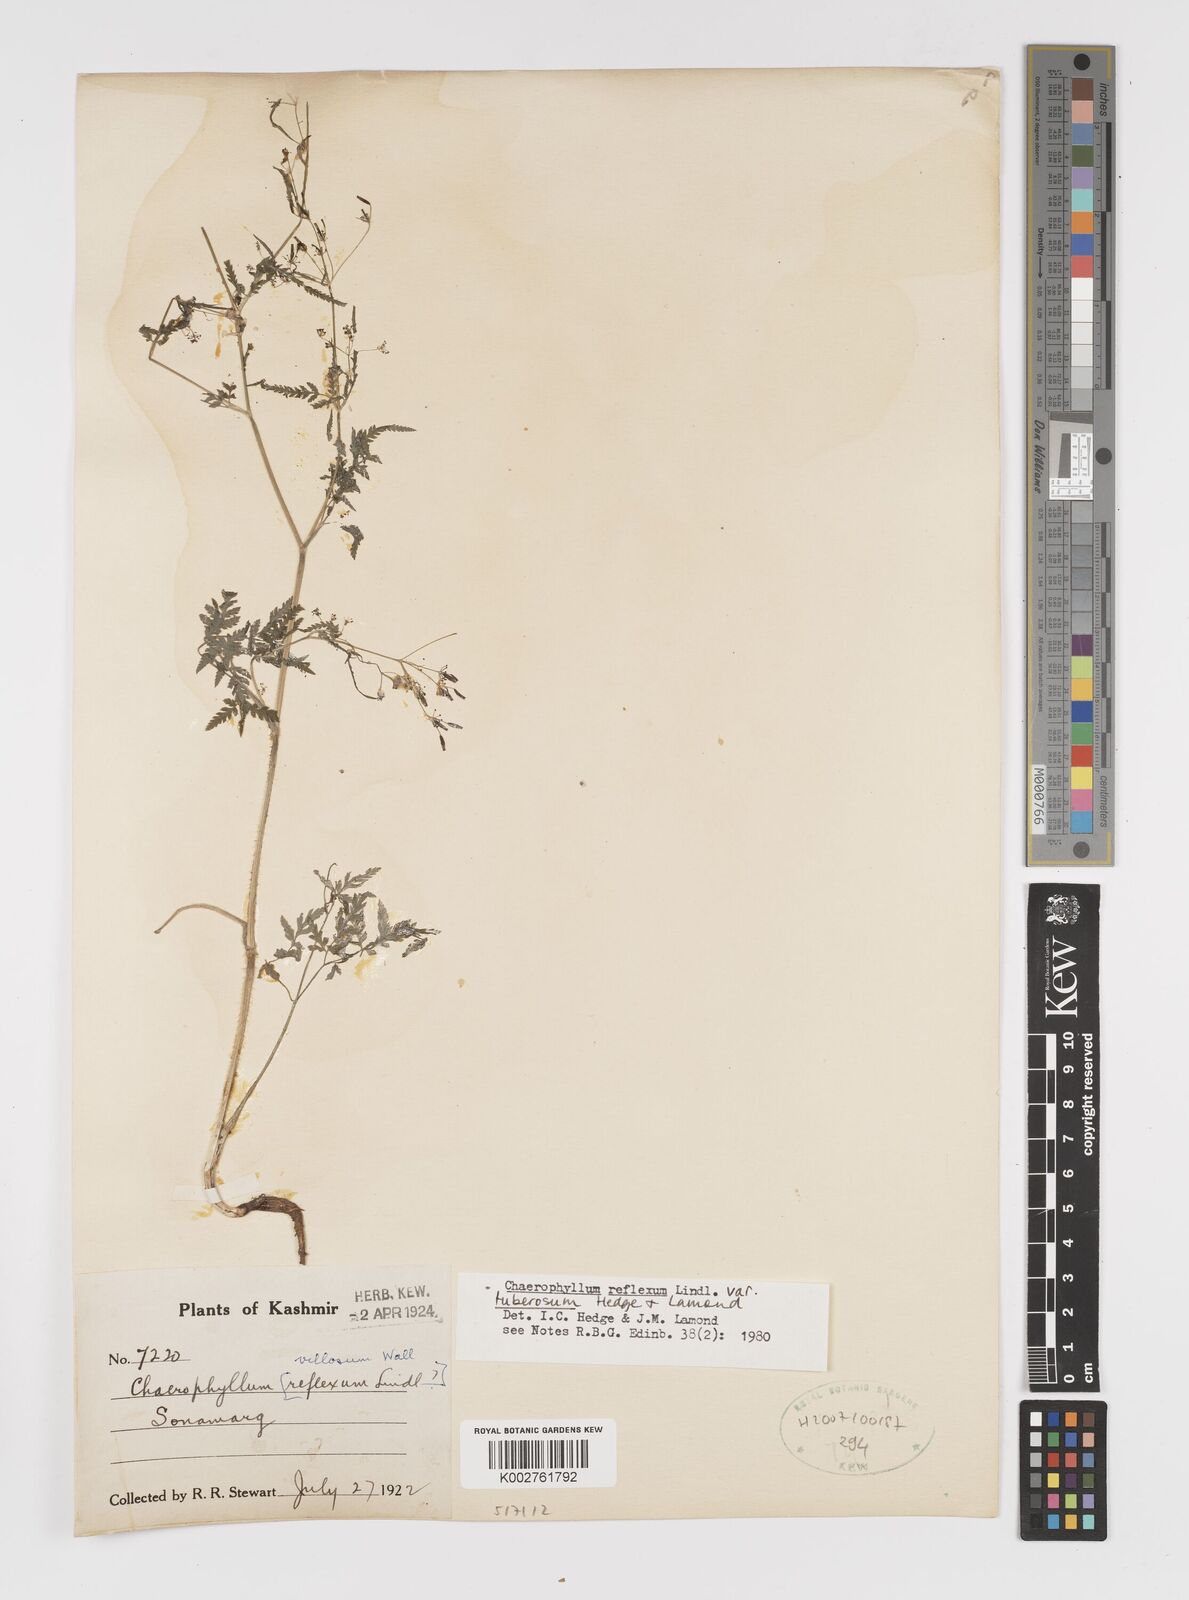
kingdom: Plantae
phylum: Tracheophyta
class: Magnoliopsida
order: Apiales
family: Apiaceae
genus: Chaerophyllum
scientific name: Chaerophyllum reflexum
